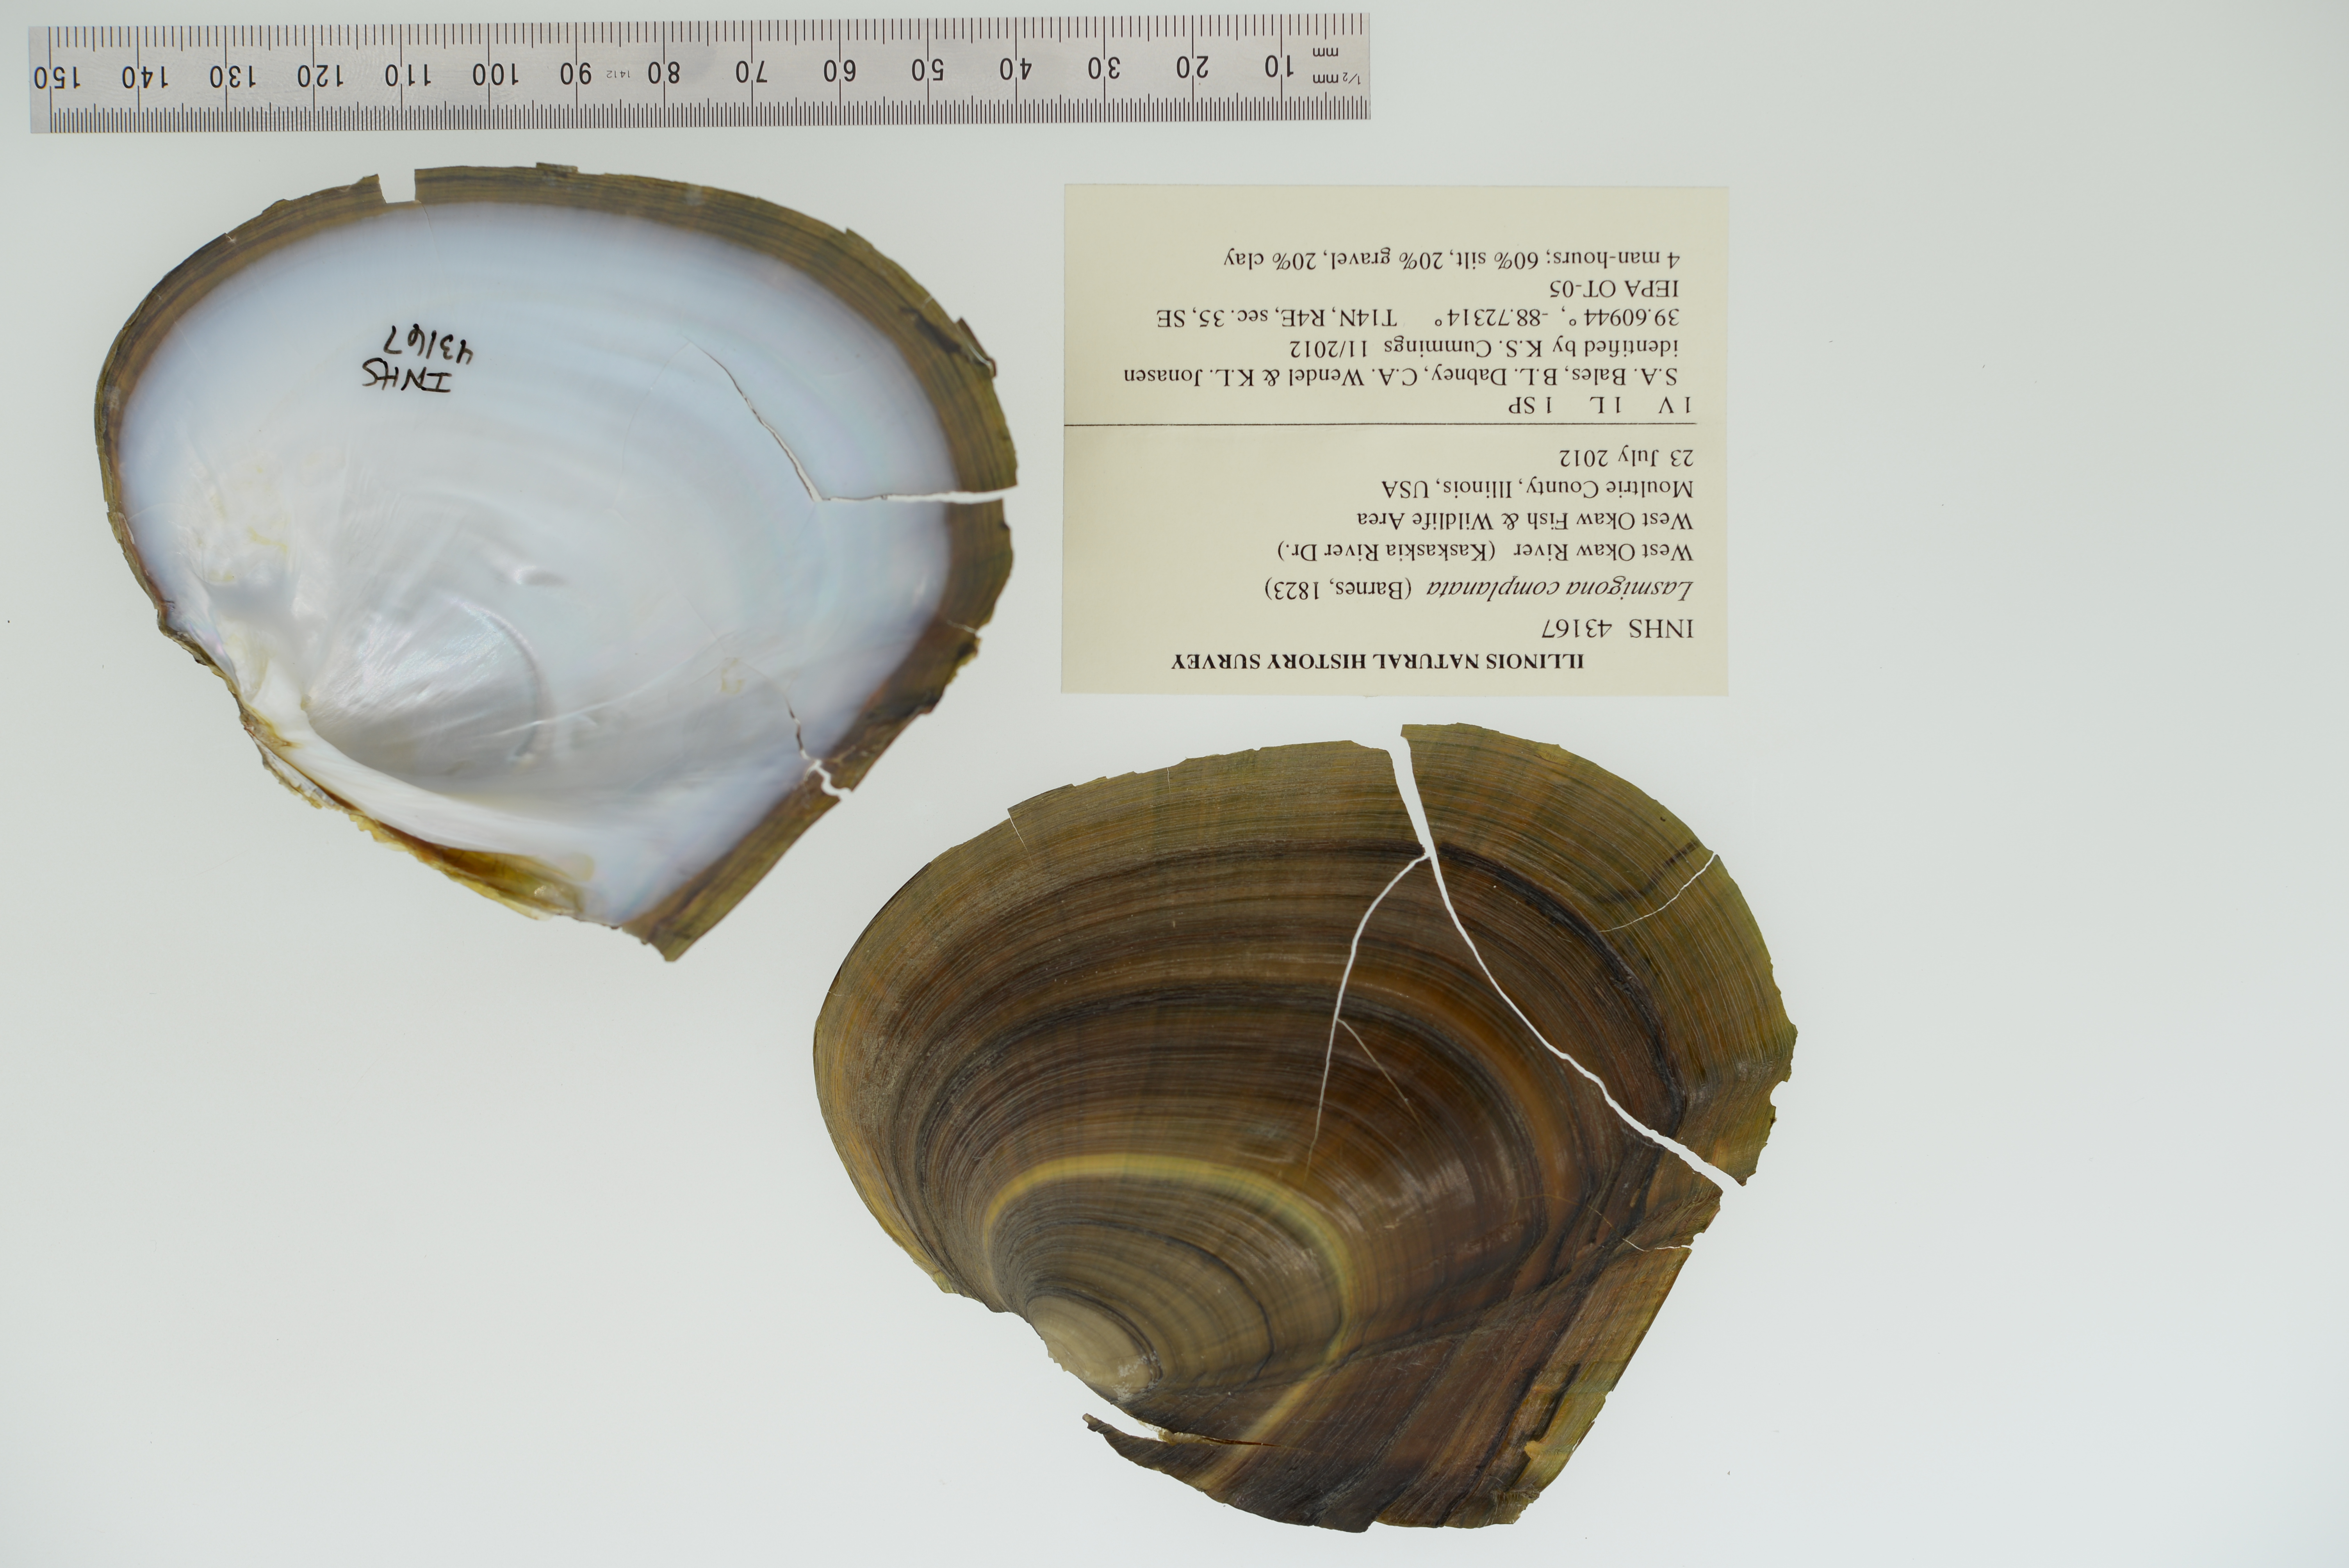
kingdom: Animalia
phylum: Mollusca
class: Bivalvia
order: Unionida
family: Unionidae
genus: Lasmigona
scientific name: Lasmigona complanata
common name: White heelsplitter
